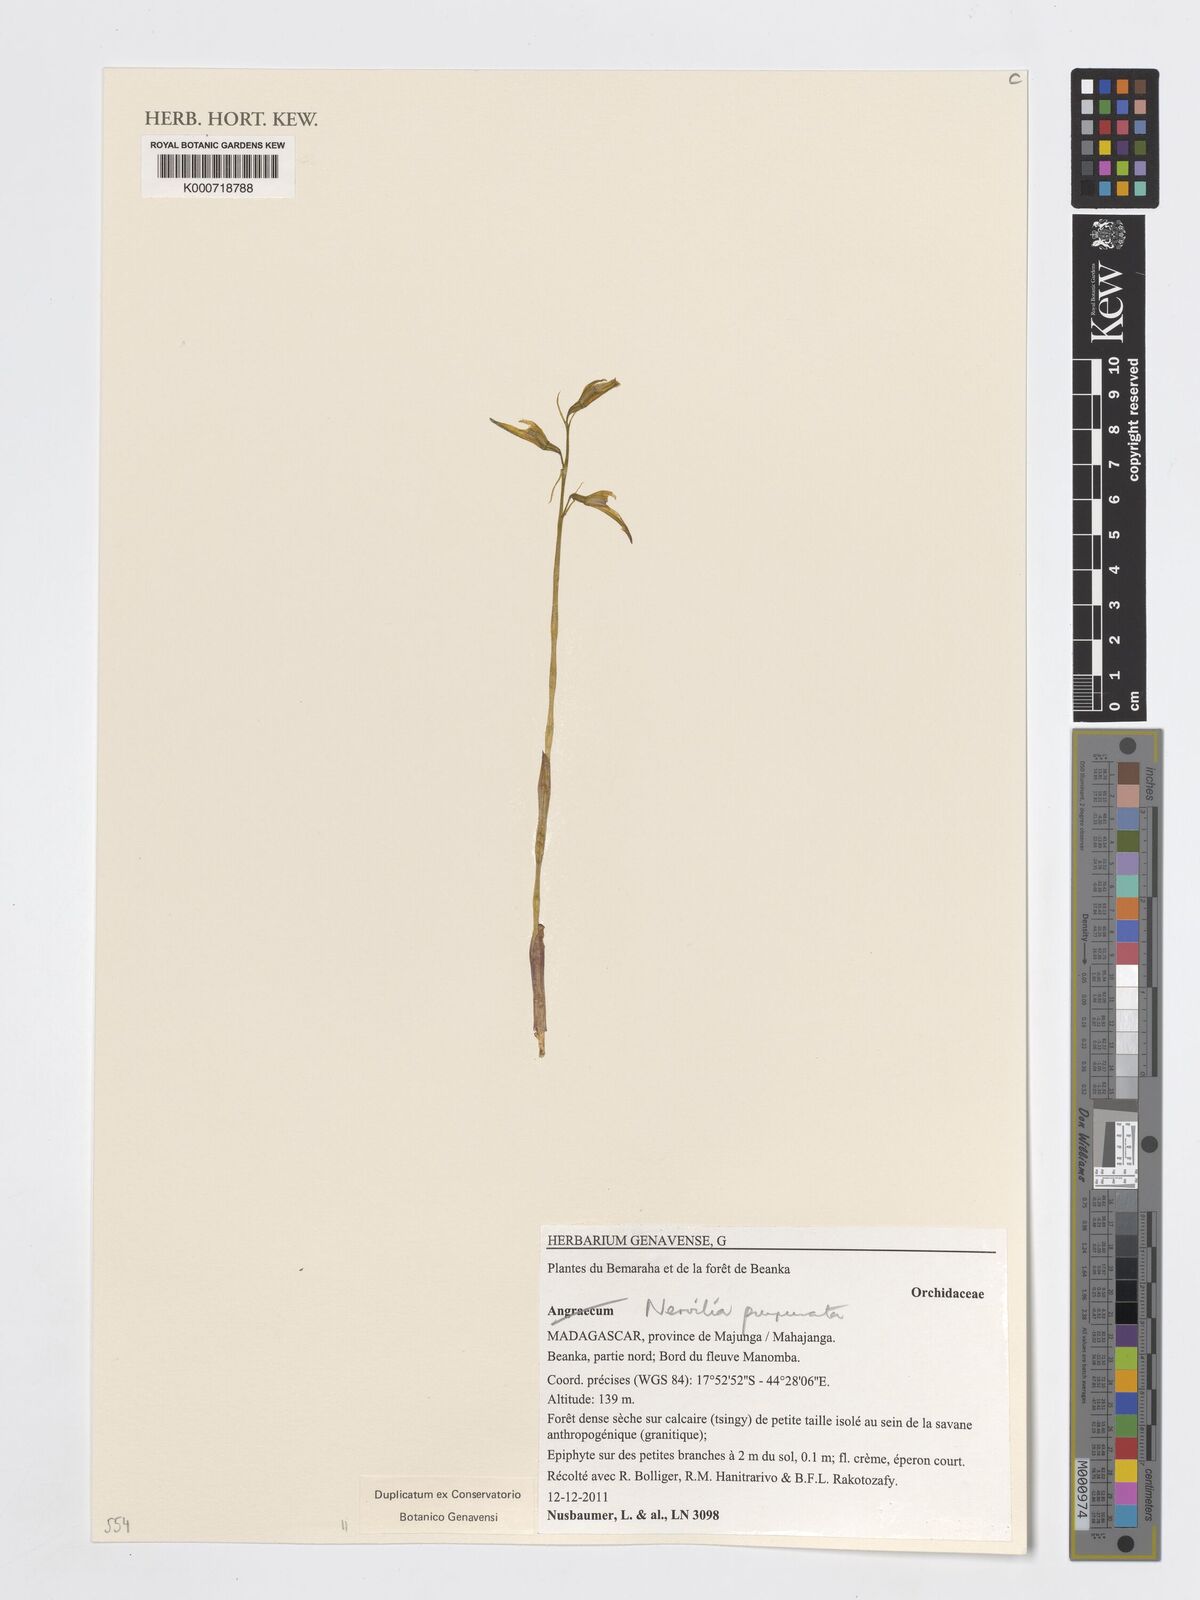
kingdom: Plantae
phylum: Tracheophyta
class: Liliopsida
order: Asparagales
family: Orchidaceae
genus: Angraecum
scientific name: Angraecum
